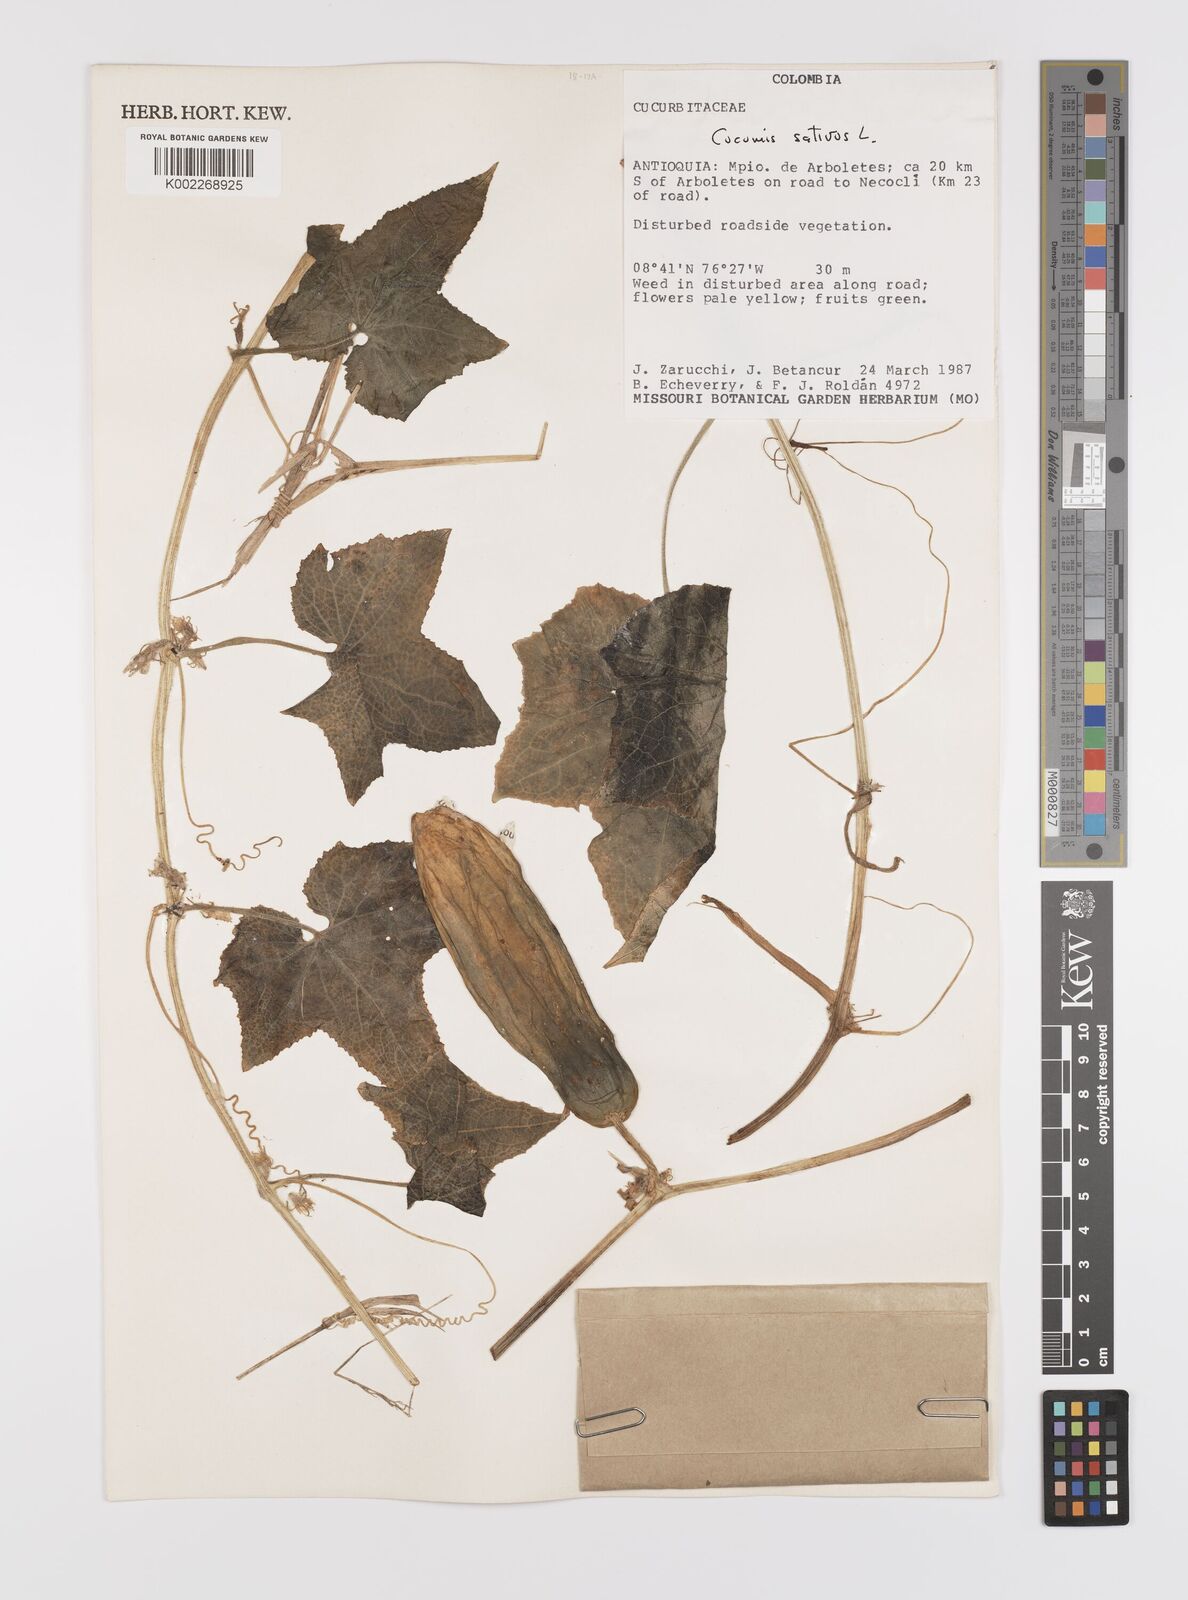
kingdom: Plantae
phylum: Tracheophyta
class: Magnoliopsida
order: Cucurbitales
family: Cucurbitaceae
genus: Cucumis
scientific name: Cucumis sativus
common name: Cucumber
